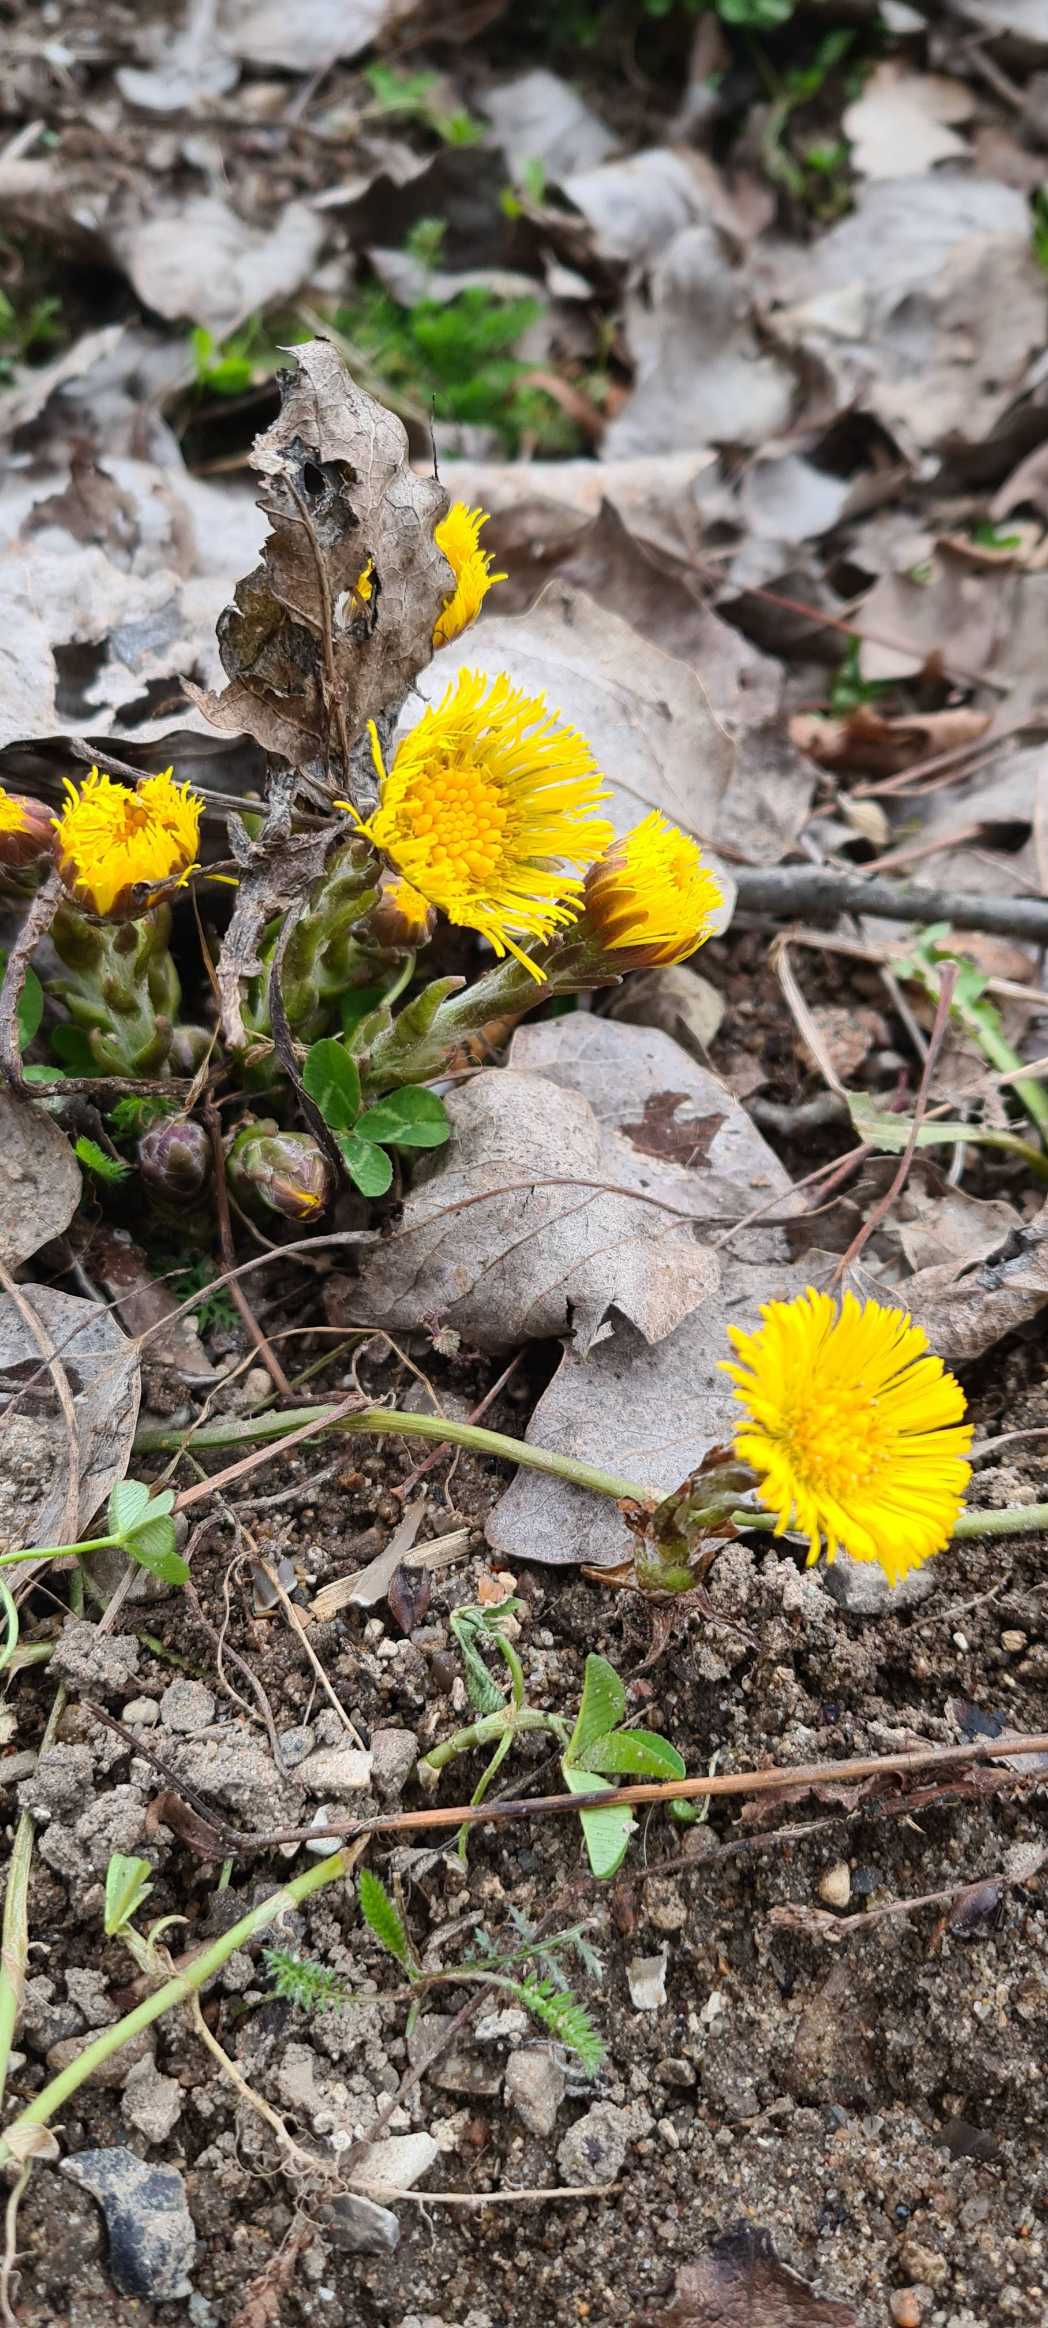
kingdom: Plantae
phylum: Tracheophyta
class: Magnoliopsida
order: Asterales
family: Asteraceae
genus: Tussilago
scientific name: Tussilago farfara
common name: Følfod
